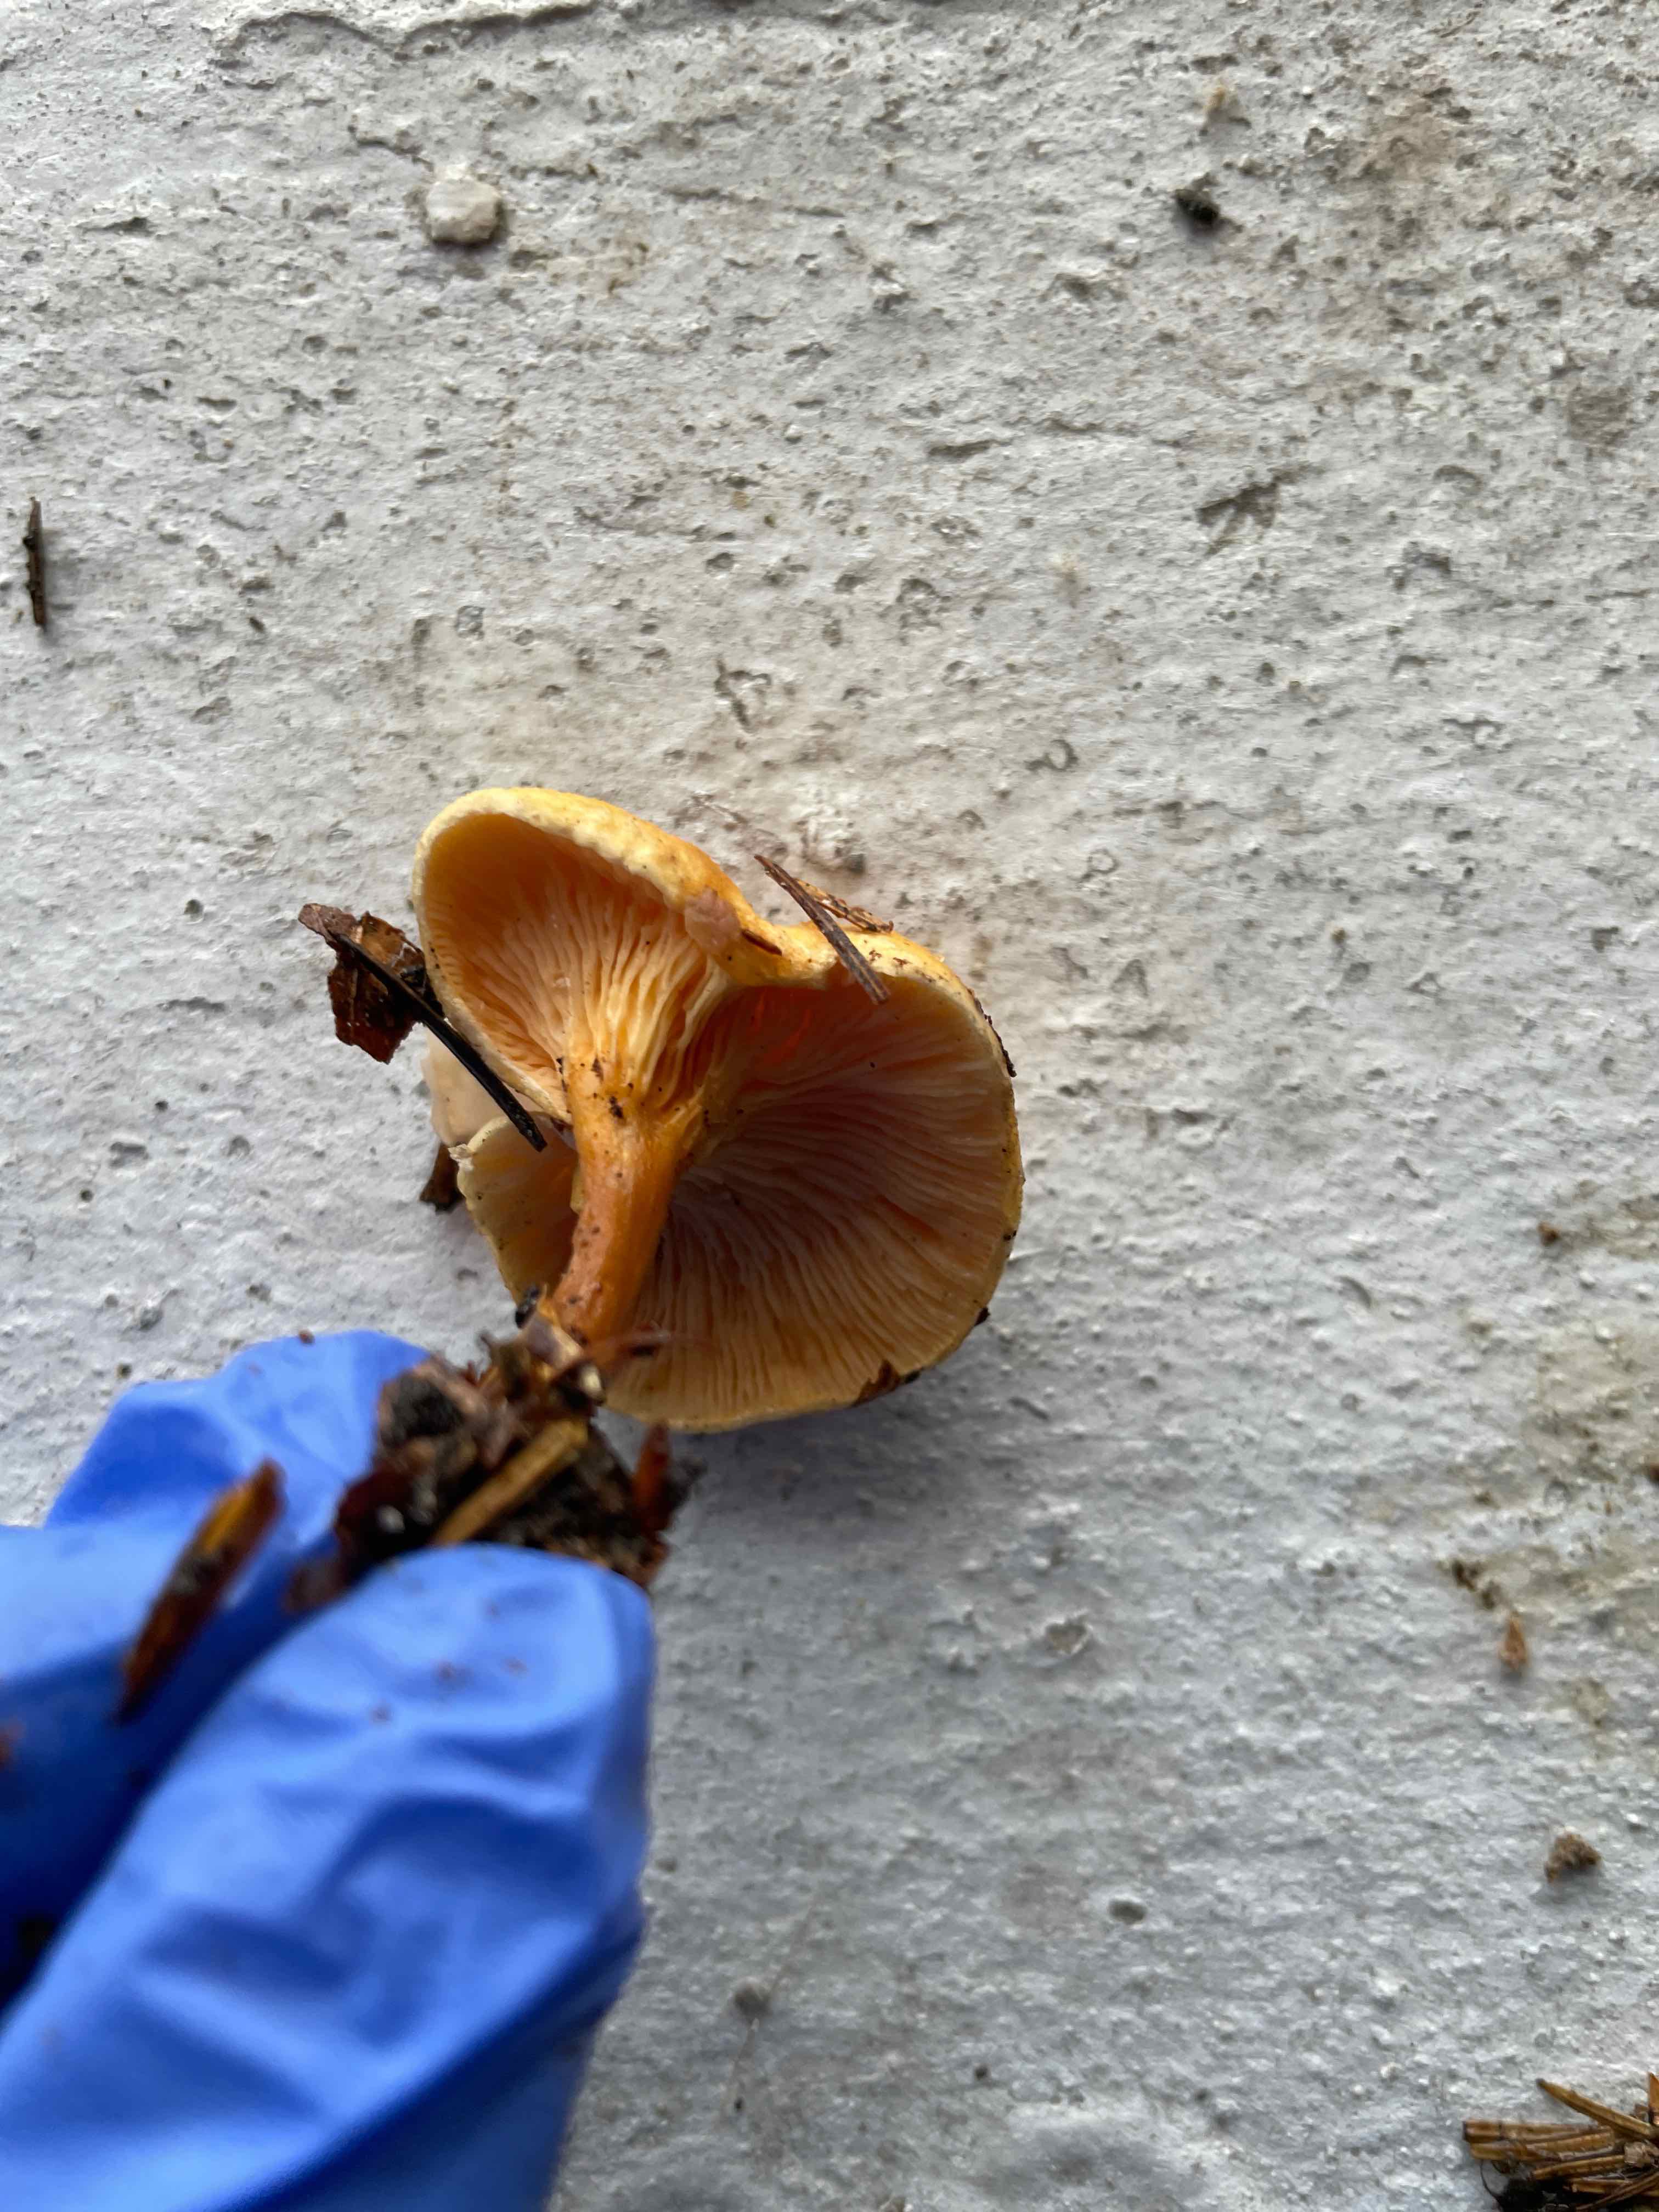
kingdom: Fungi
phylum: Basidiomycota
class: Agaricomycetes
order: Boletales
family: Hygrophoropsidaceae
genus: Hygrophoropsis
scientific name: Hygrophoropsis aurantiaca
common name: almindelig orangekantarel
